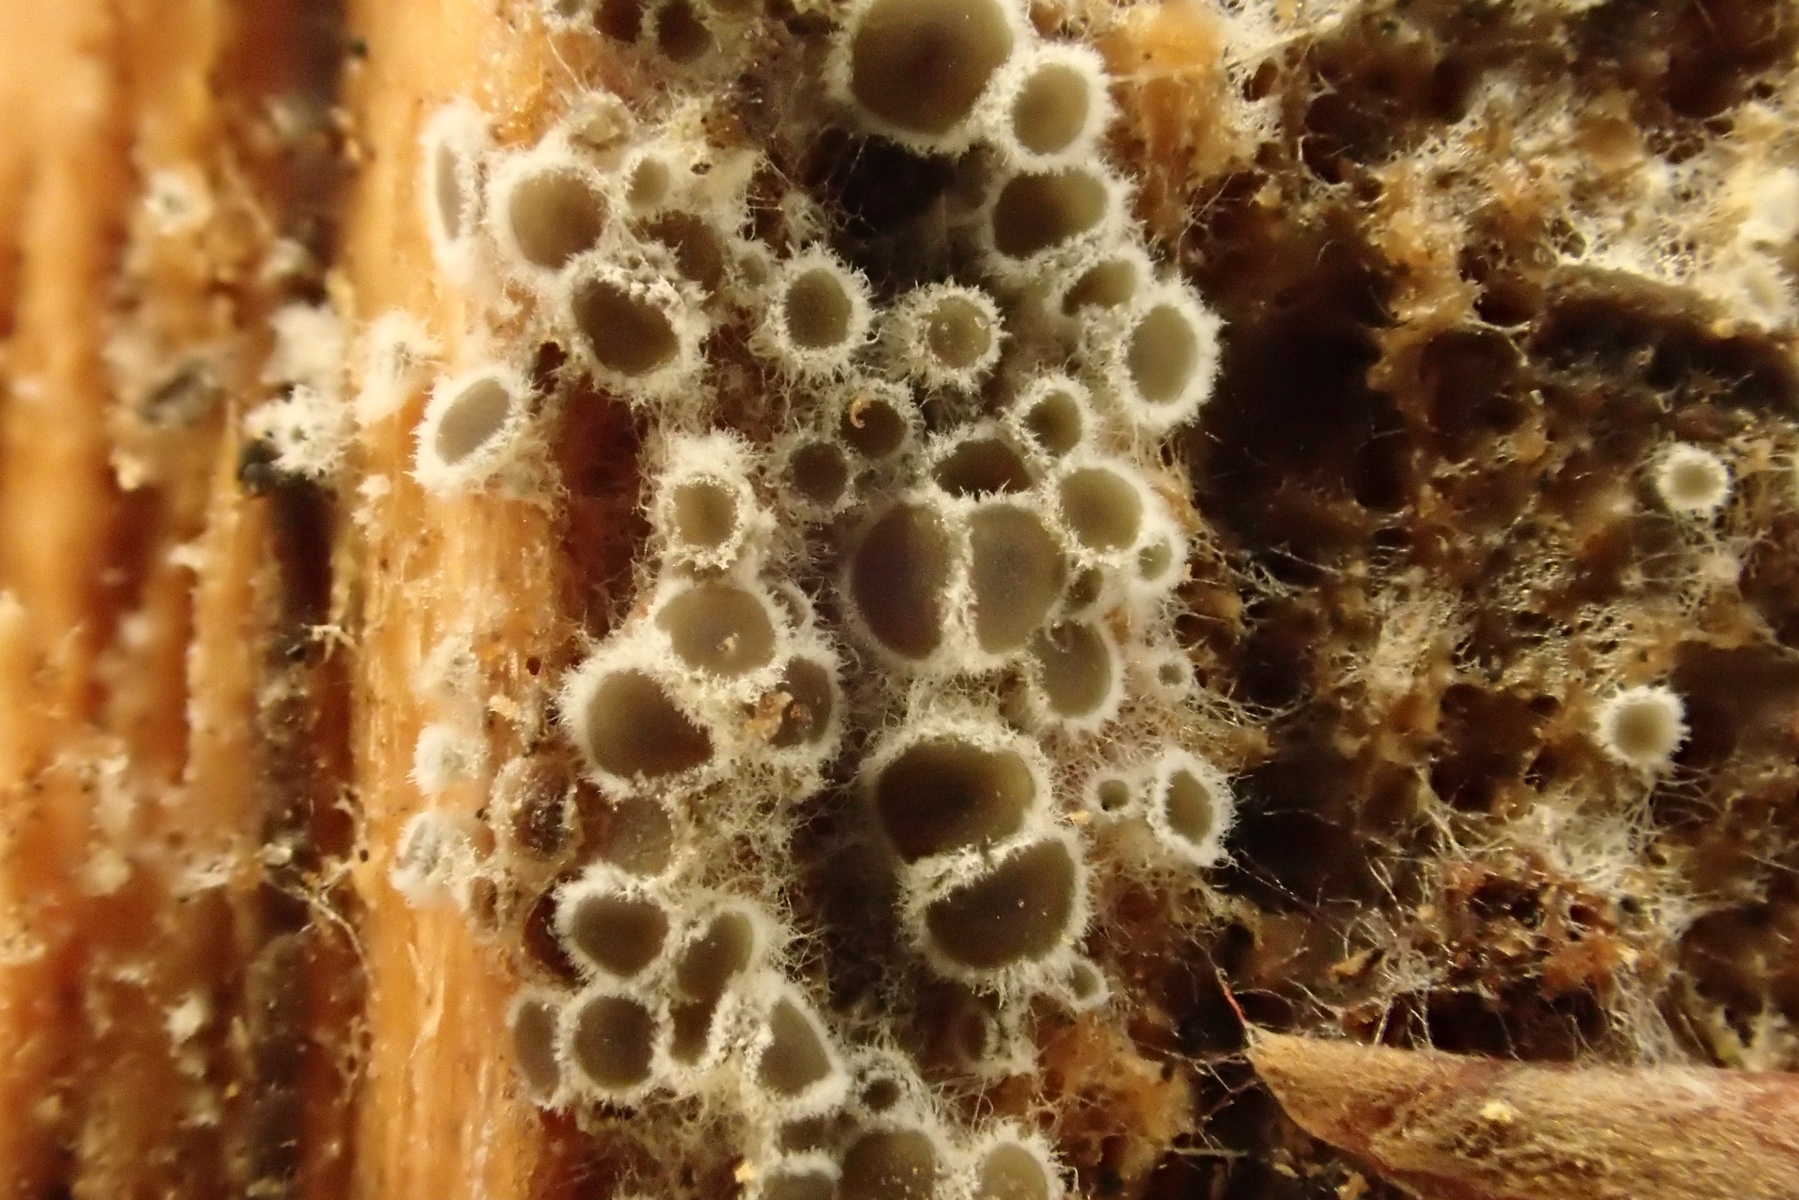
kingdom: Fungi
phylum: Ascomycota
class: Leotiomycetes
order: Helotiales
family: Arachnopezizaceae
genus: Eriopezia
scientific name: Eriopezia caesia
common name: ege-spindskive
